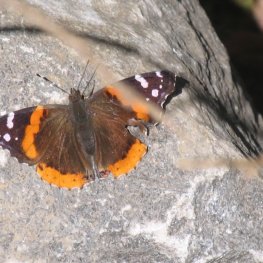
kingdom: Animalia
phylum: Arthropoda
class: Insecta
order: Lepidoptera
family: Nymphalidae
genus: Vanessa
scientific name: Vanessa atalanta
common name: Red Admiral
